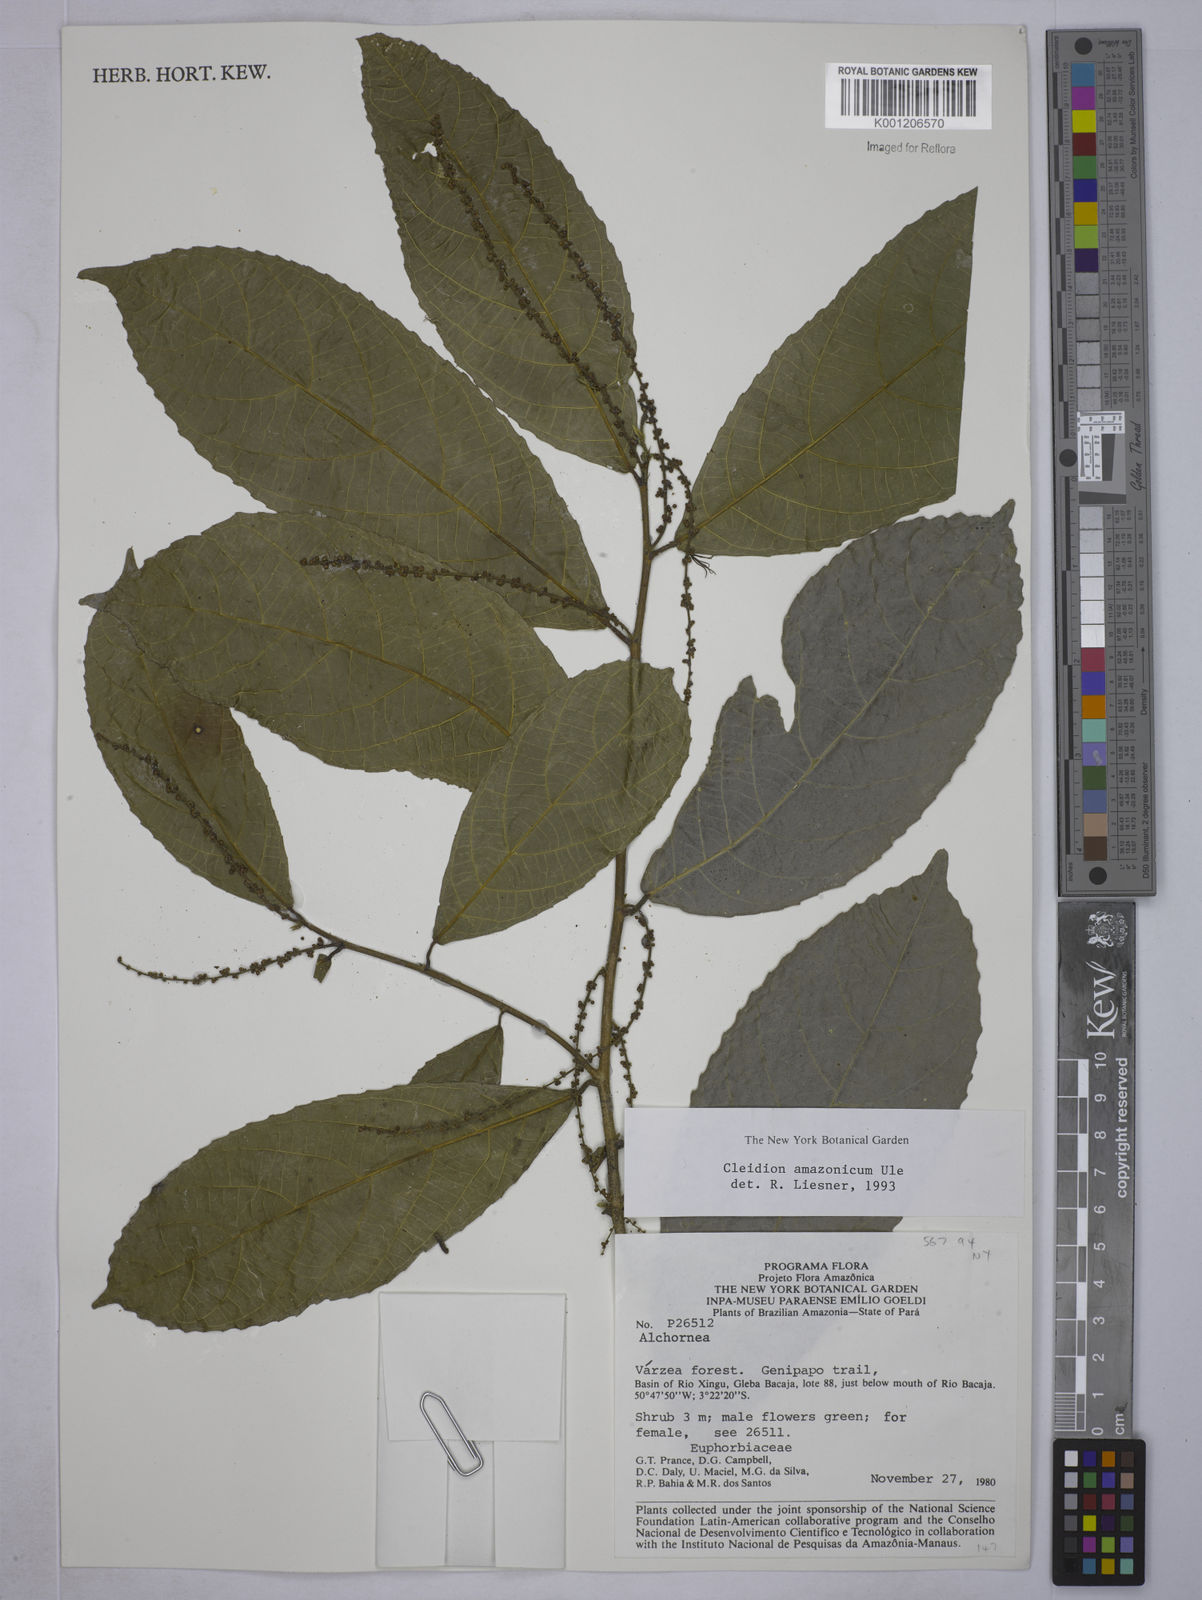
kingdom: Plantae
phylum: Tracheophyta
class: Magnoliopsida
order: Malpighiales
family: Euphorbiaceae
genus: Cleidion
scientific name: Cleidion amazonicum
